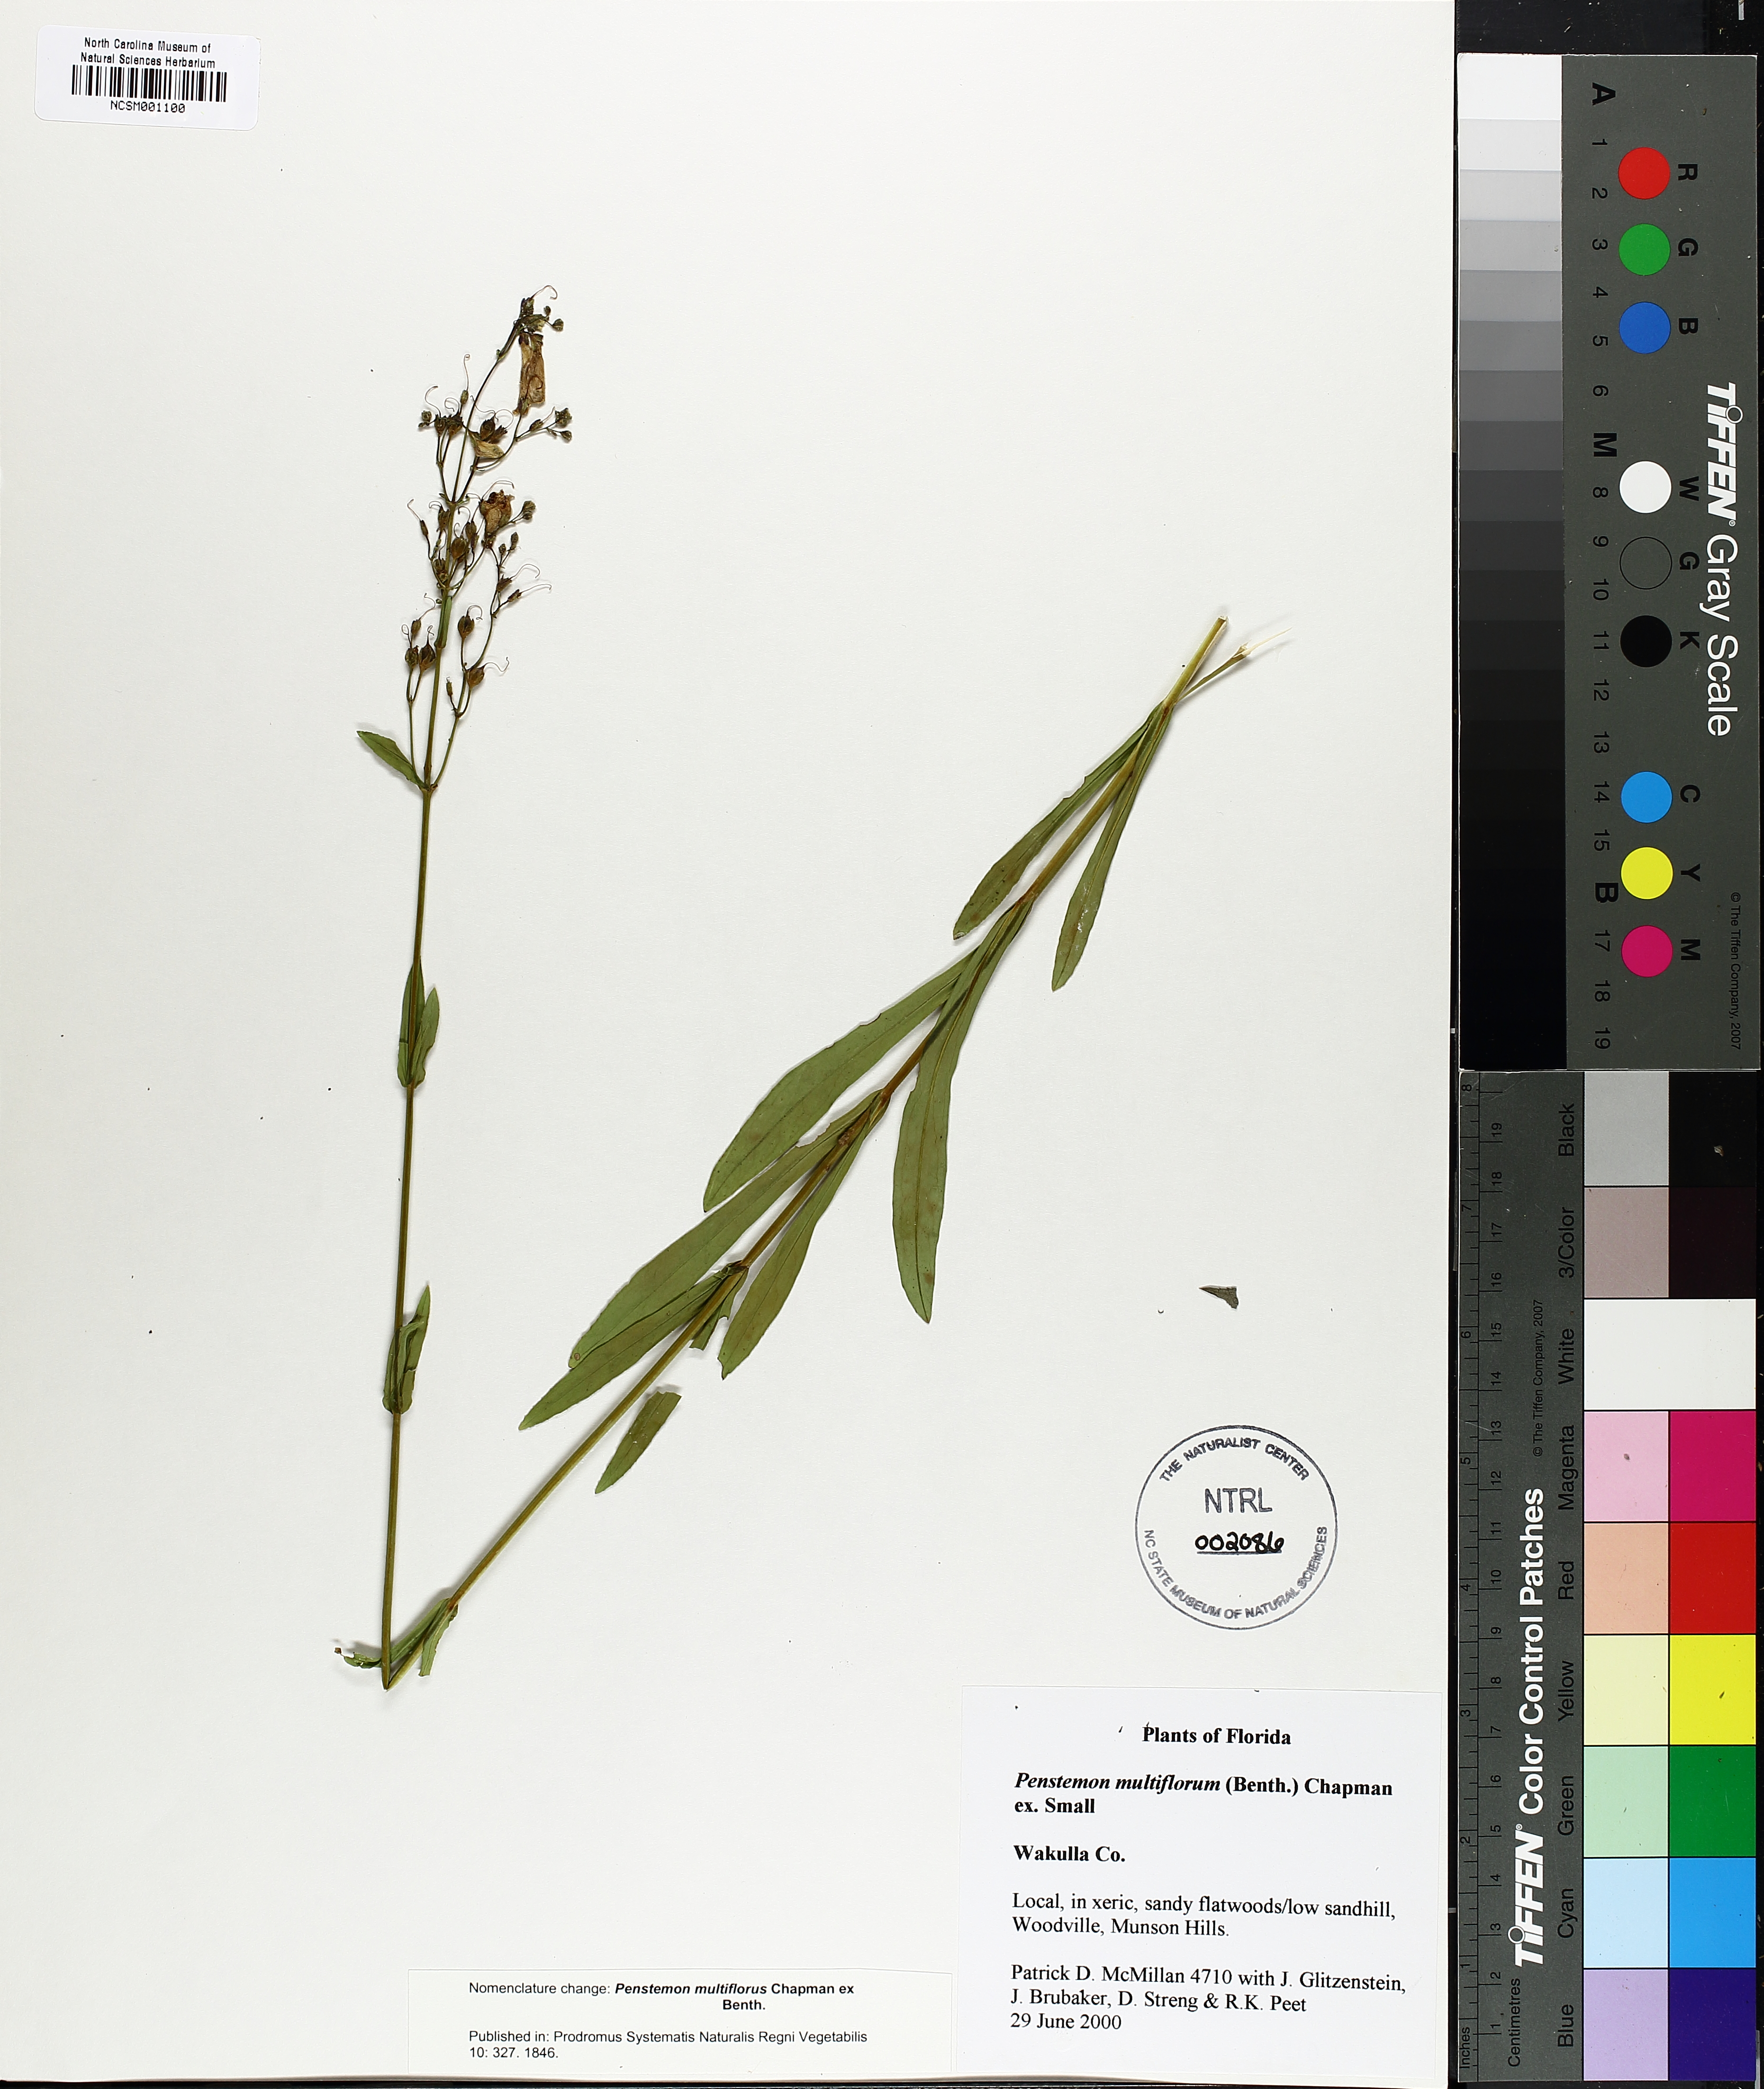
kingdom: Plantae
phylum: Tracheophyta
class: Magnoliopsida
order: Lamiales
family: Plantaginaceae
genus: Penstemon
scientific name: Penstemon multiflorus
